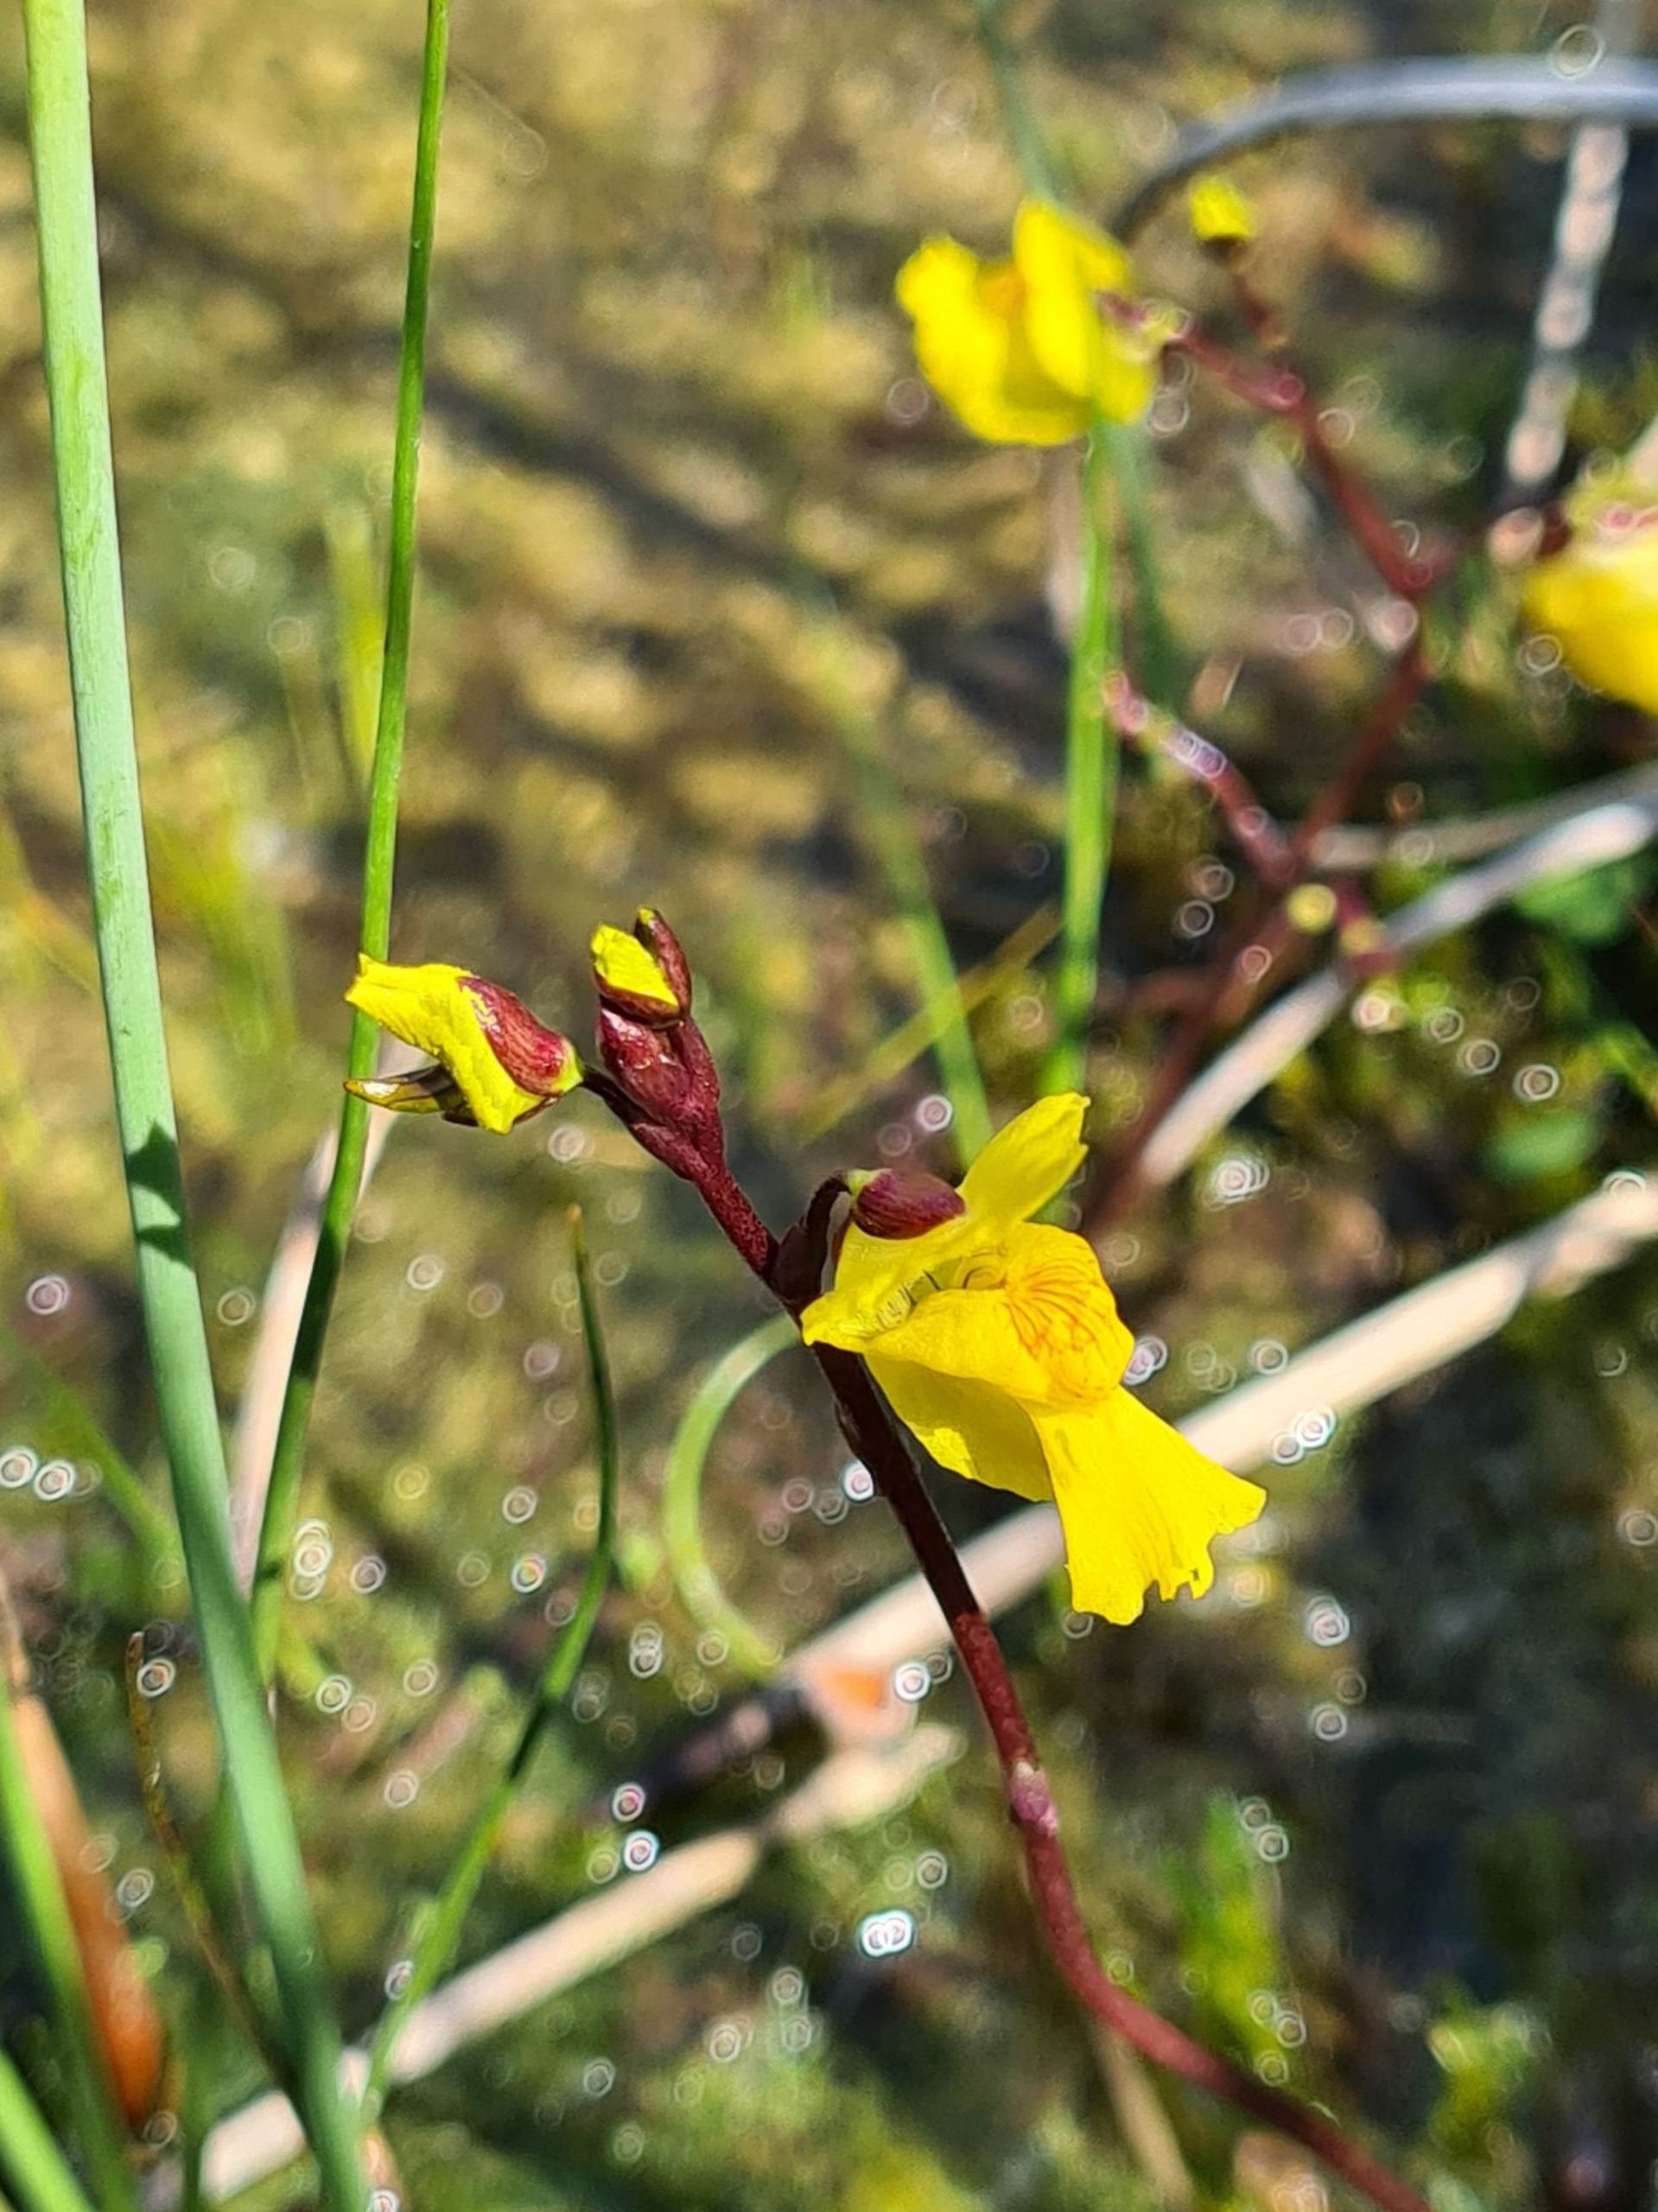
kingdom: Plantae
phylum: Tracheophyta
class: Magnoliopsida
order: Lamiales
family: Lentibulariaceae
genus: Utricularia
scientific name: Utricularia vulgaris
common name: Almindelig blærerod
